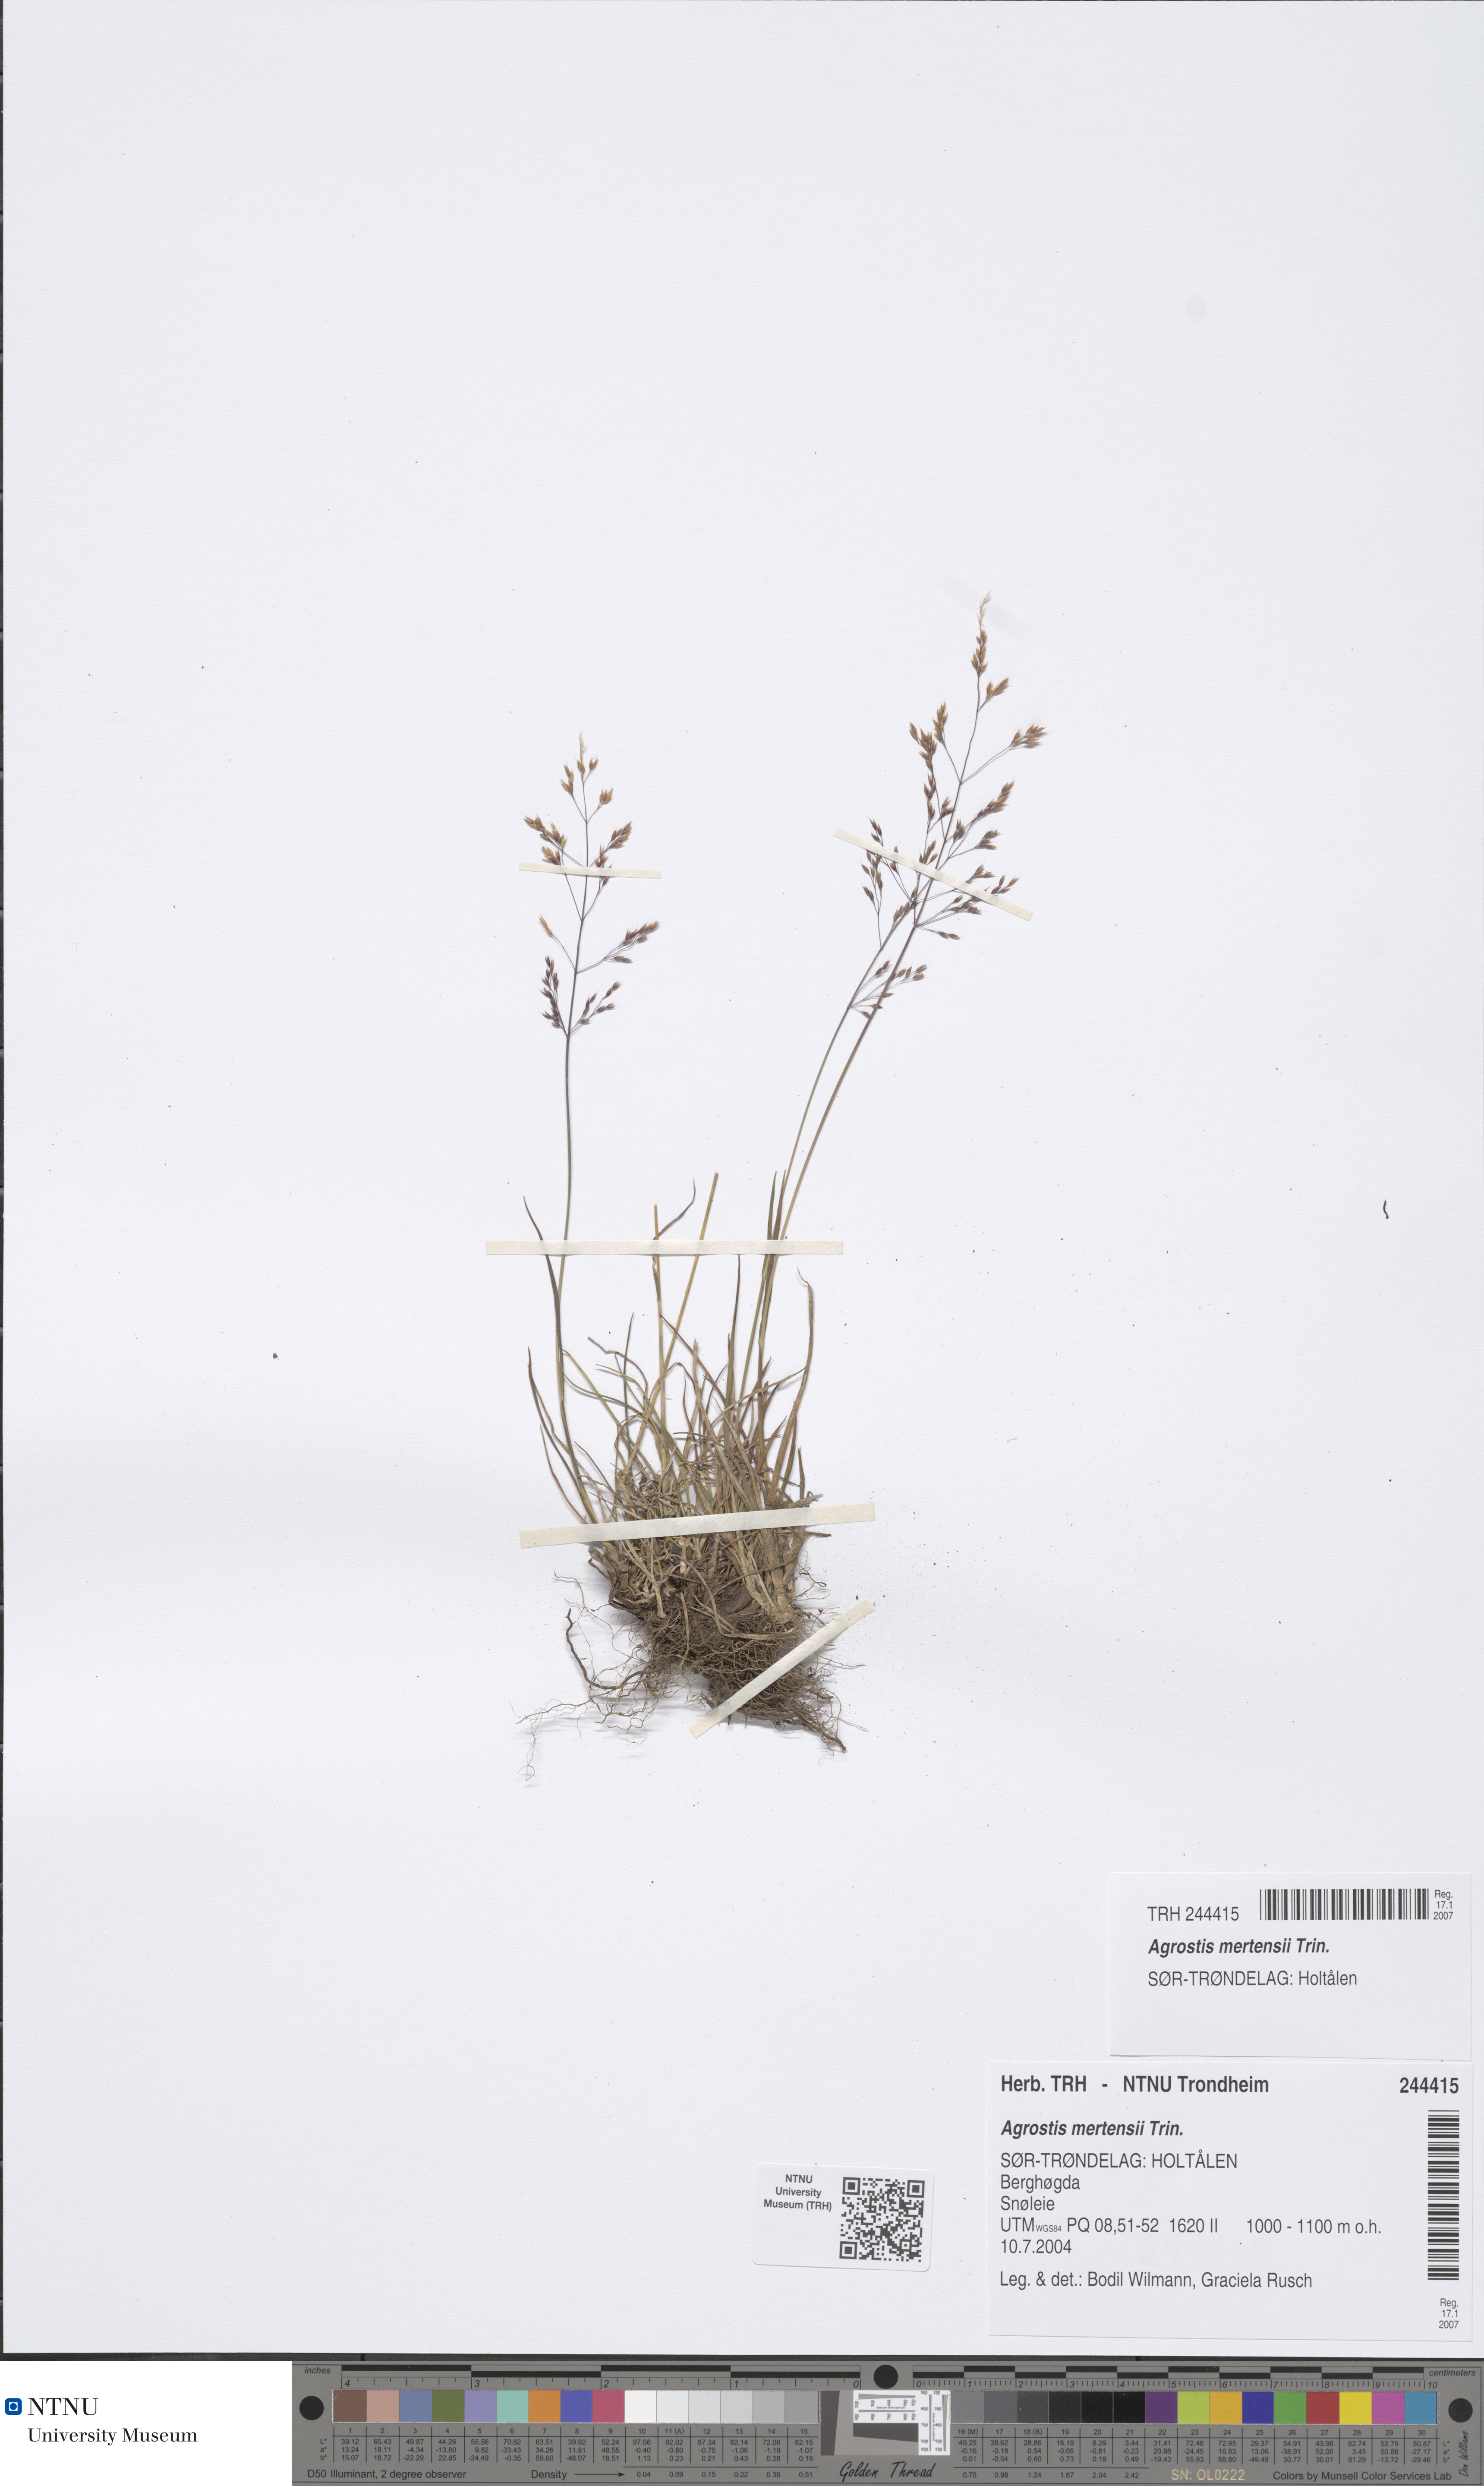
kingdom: Plantae
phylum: Tracheophyta
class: Liliopsida
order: Poales
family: Poaceae
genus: Agrostis
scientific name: Agrostis mertensii
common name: Northern bent
